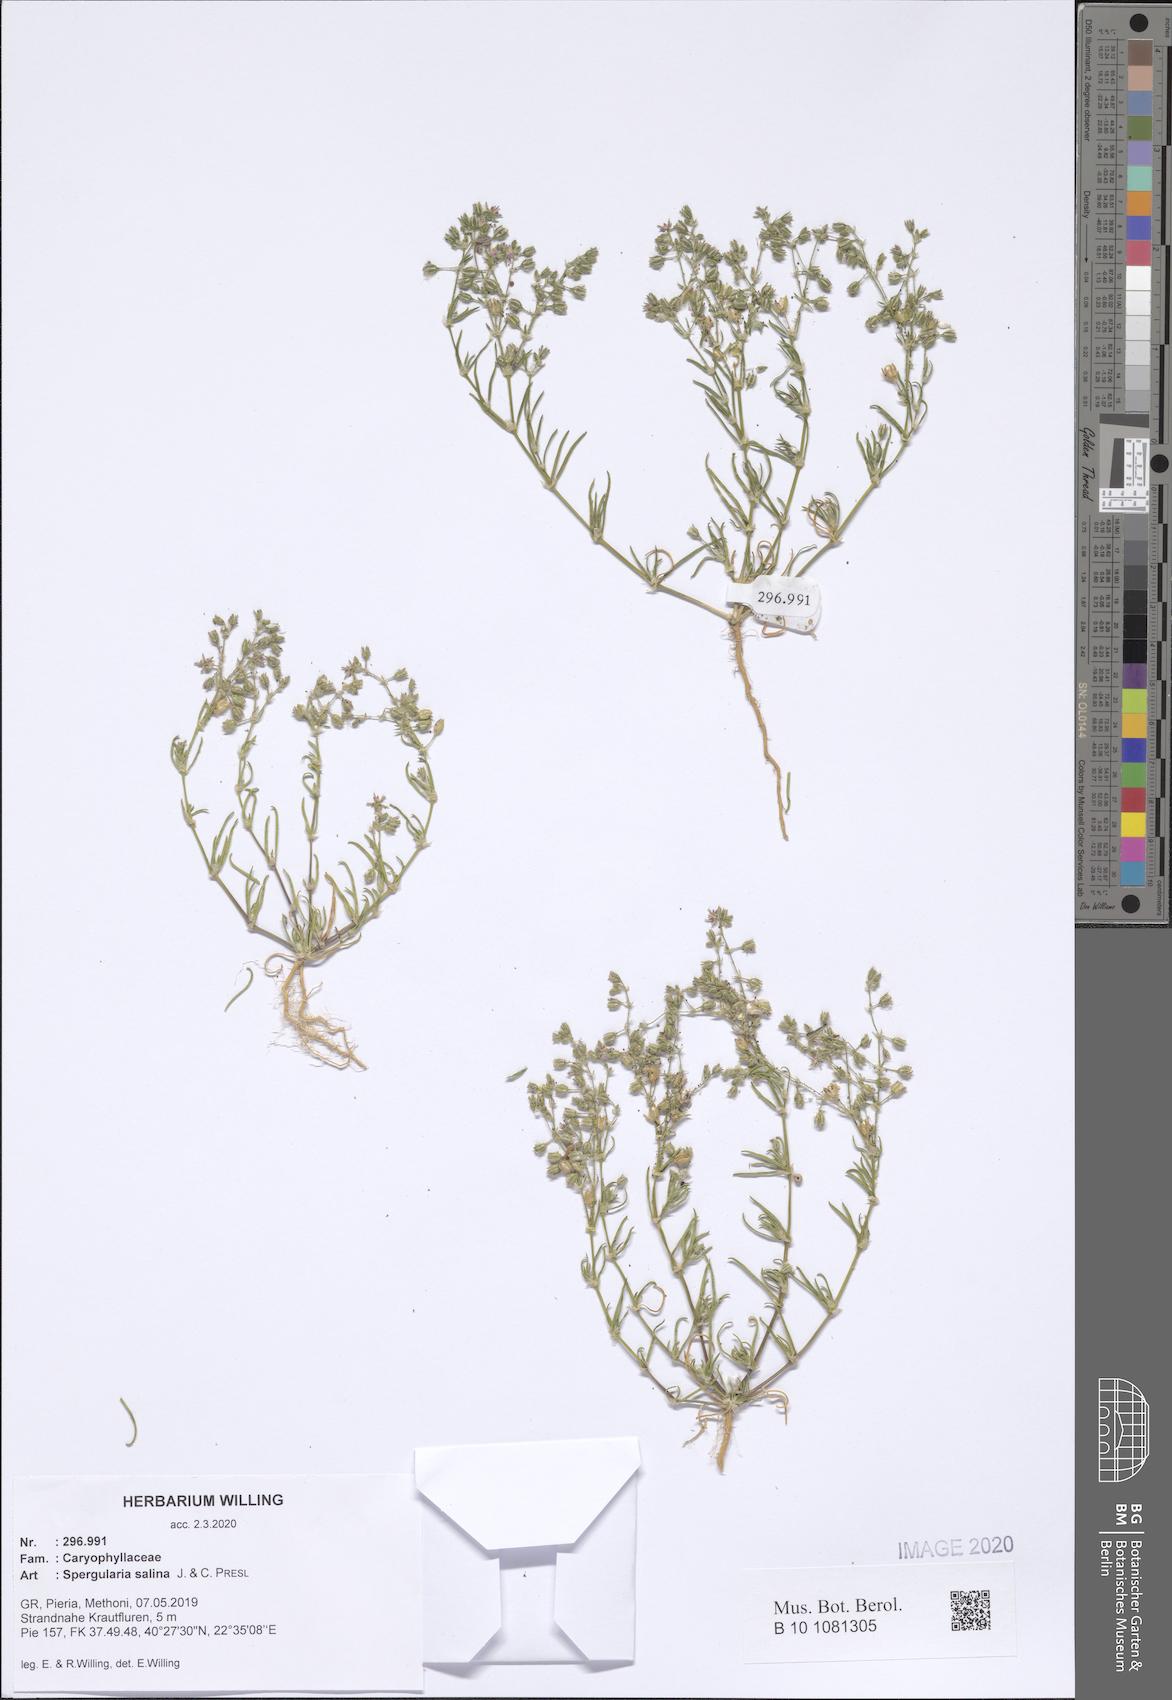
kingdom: Plantae
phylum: Tracheophyta
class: Magnoliopsida
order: Caryophyllales
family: Caryophyllaceae
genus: Spergularia
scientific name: Spergularia marina
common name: Lesser sea-spurrey
